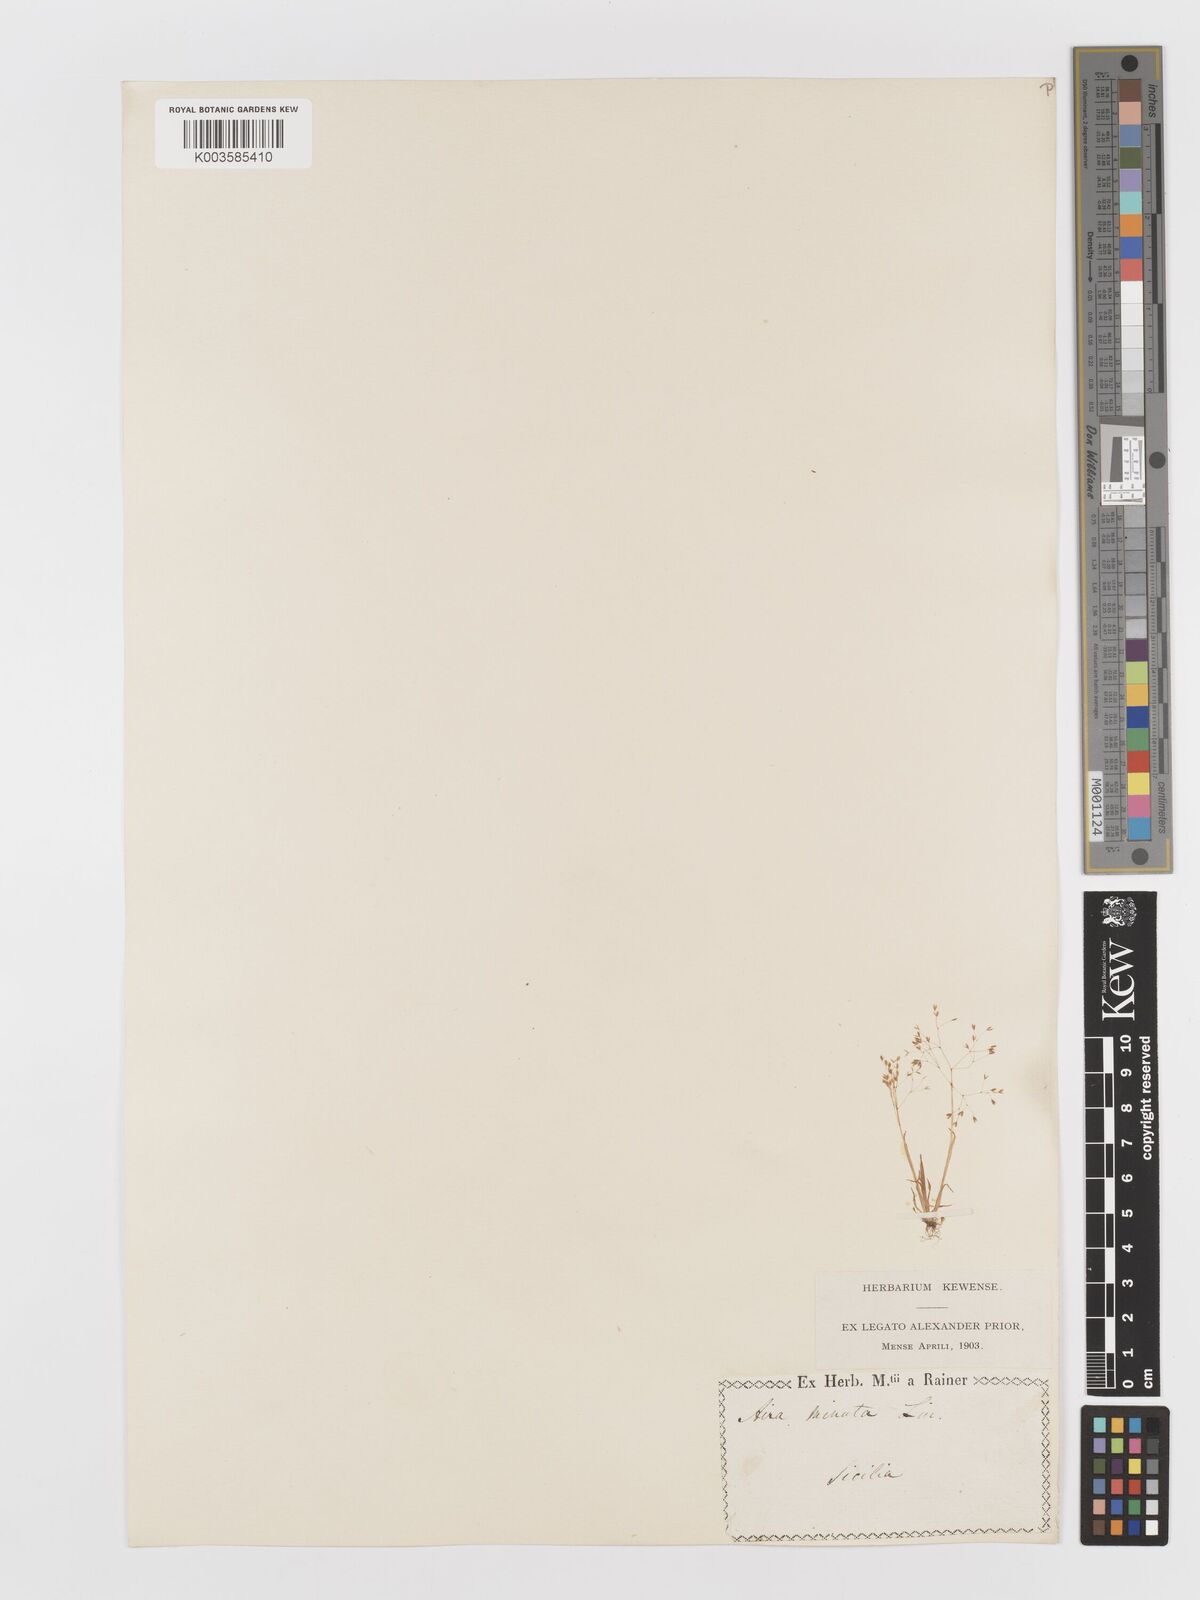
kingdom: Plantae
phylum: Tracheophyta
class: Liliopsida
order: Poales
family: Poaceae
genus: Antinoria
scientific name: Antinoria agrostidea
